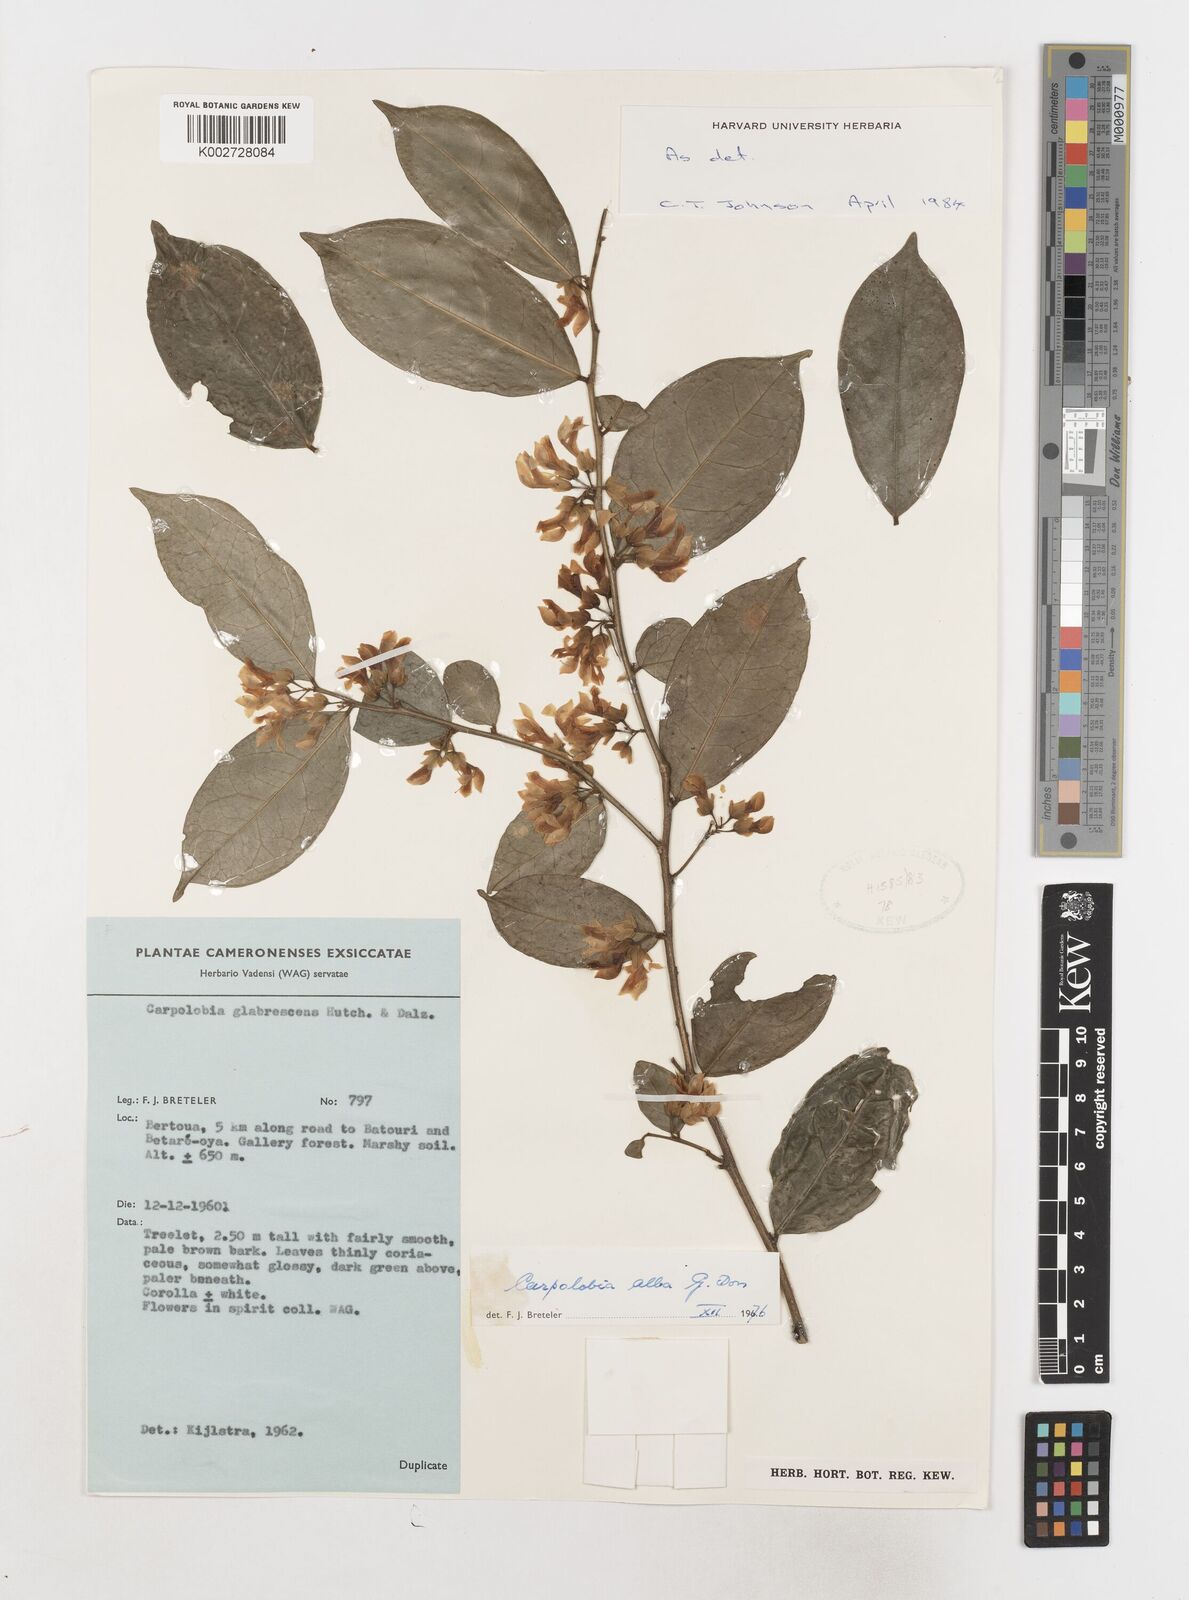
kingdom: Plantae
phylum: Tracheophyta
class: Magnoliopsida
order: Fabales
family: Polygalaceae
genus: Carpolobia
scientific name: Carpolobia alba
